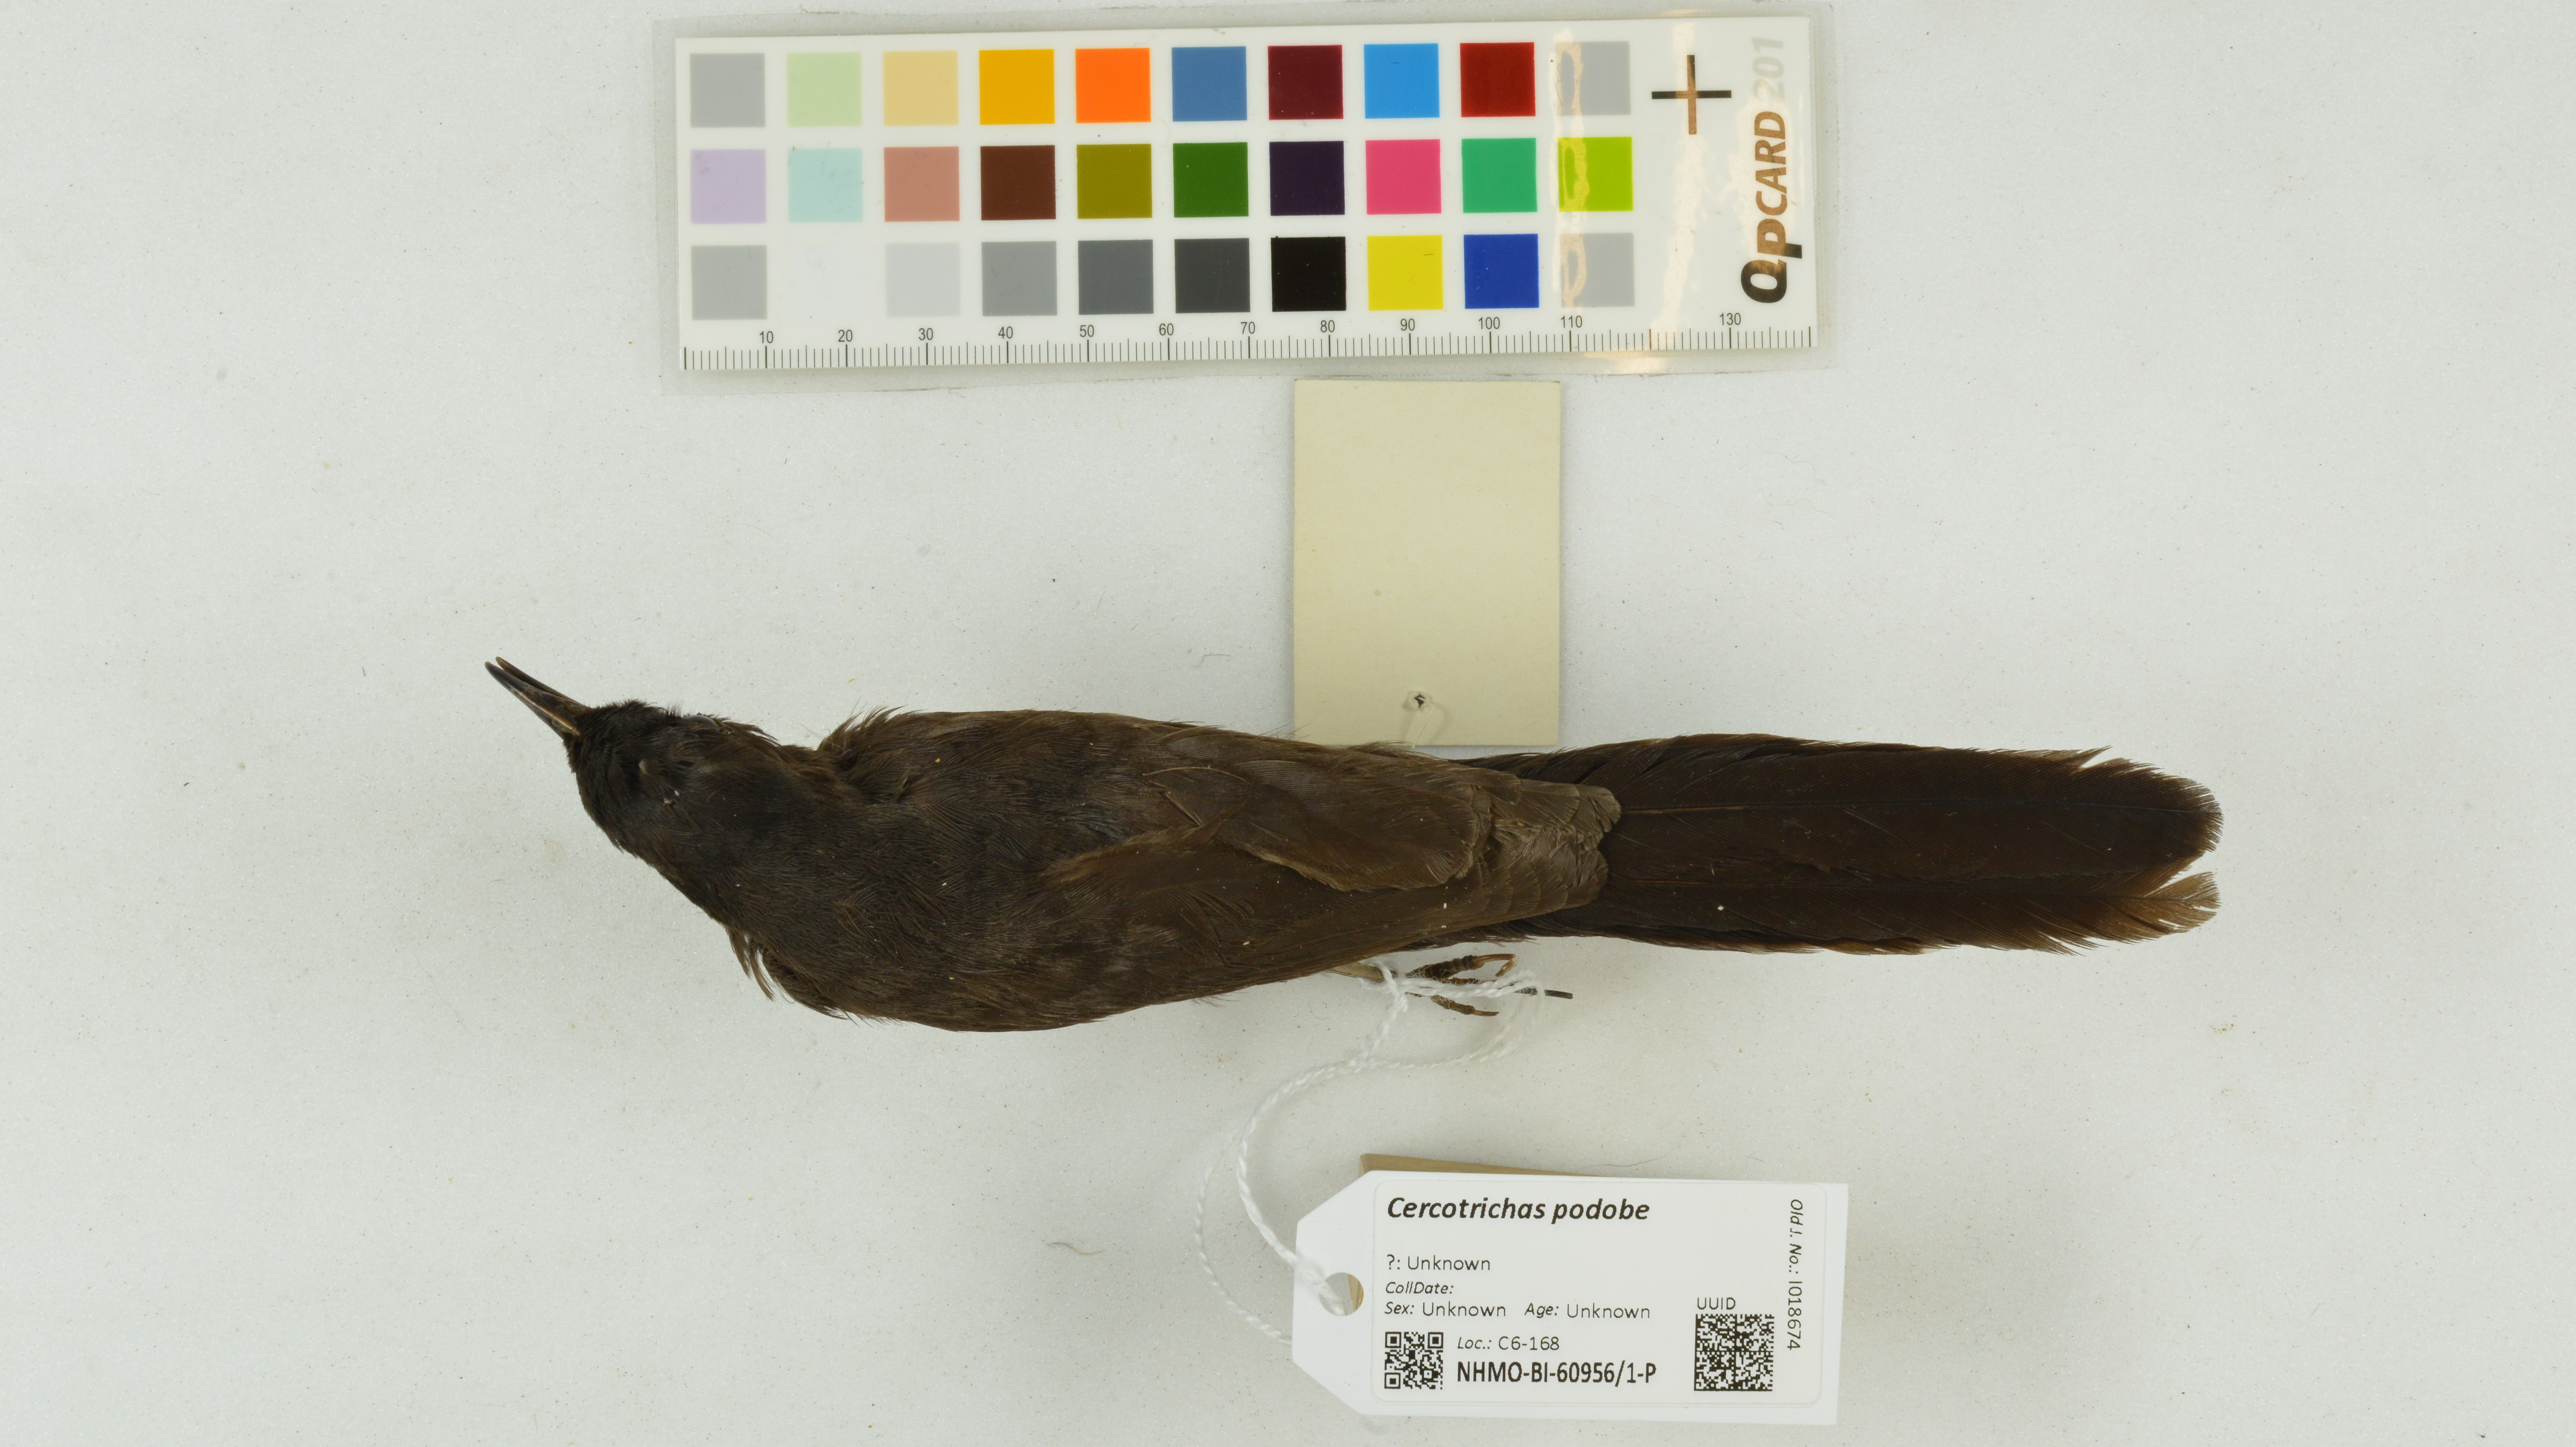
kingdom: Animalia
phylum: Chordata
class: Aves
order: Passeriformes
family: Muscicapidae
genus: Cercotrichas
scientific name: Cercotrichas podobe
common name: Black scrub robin
